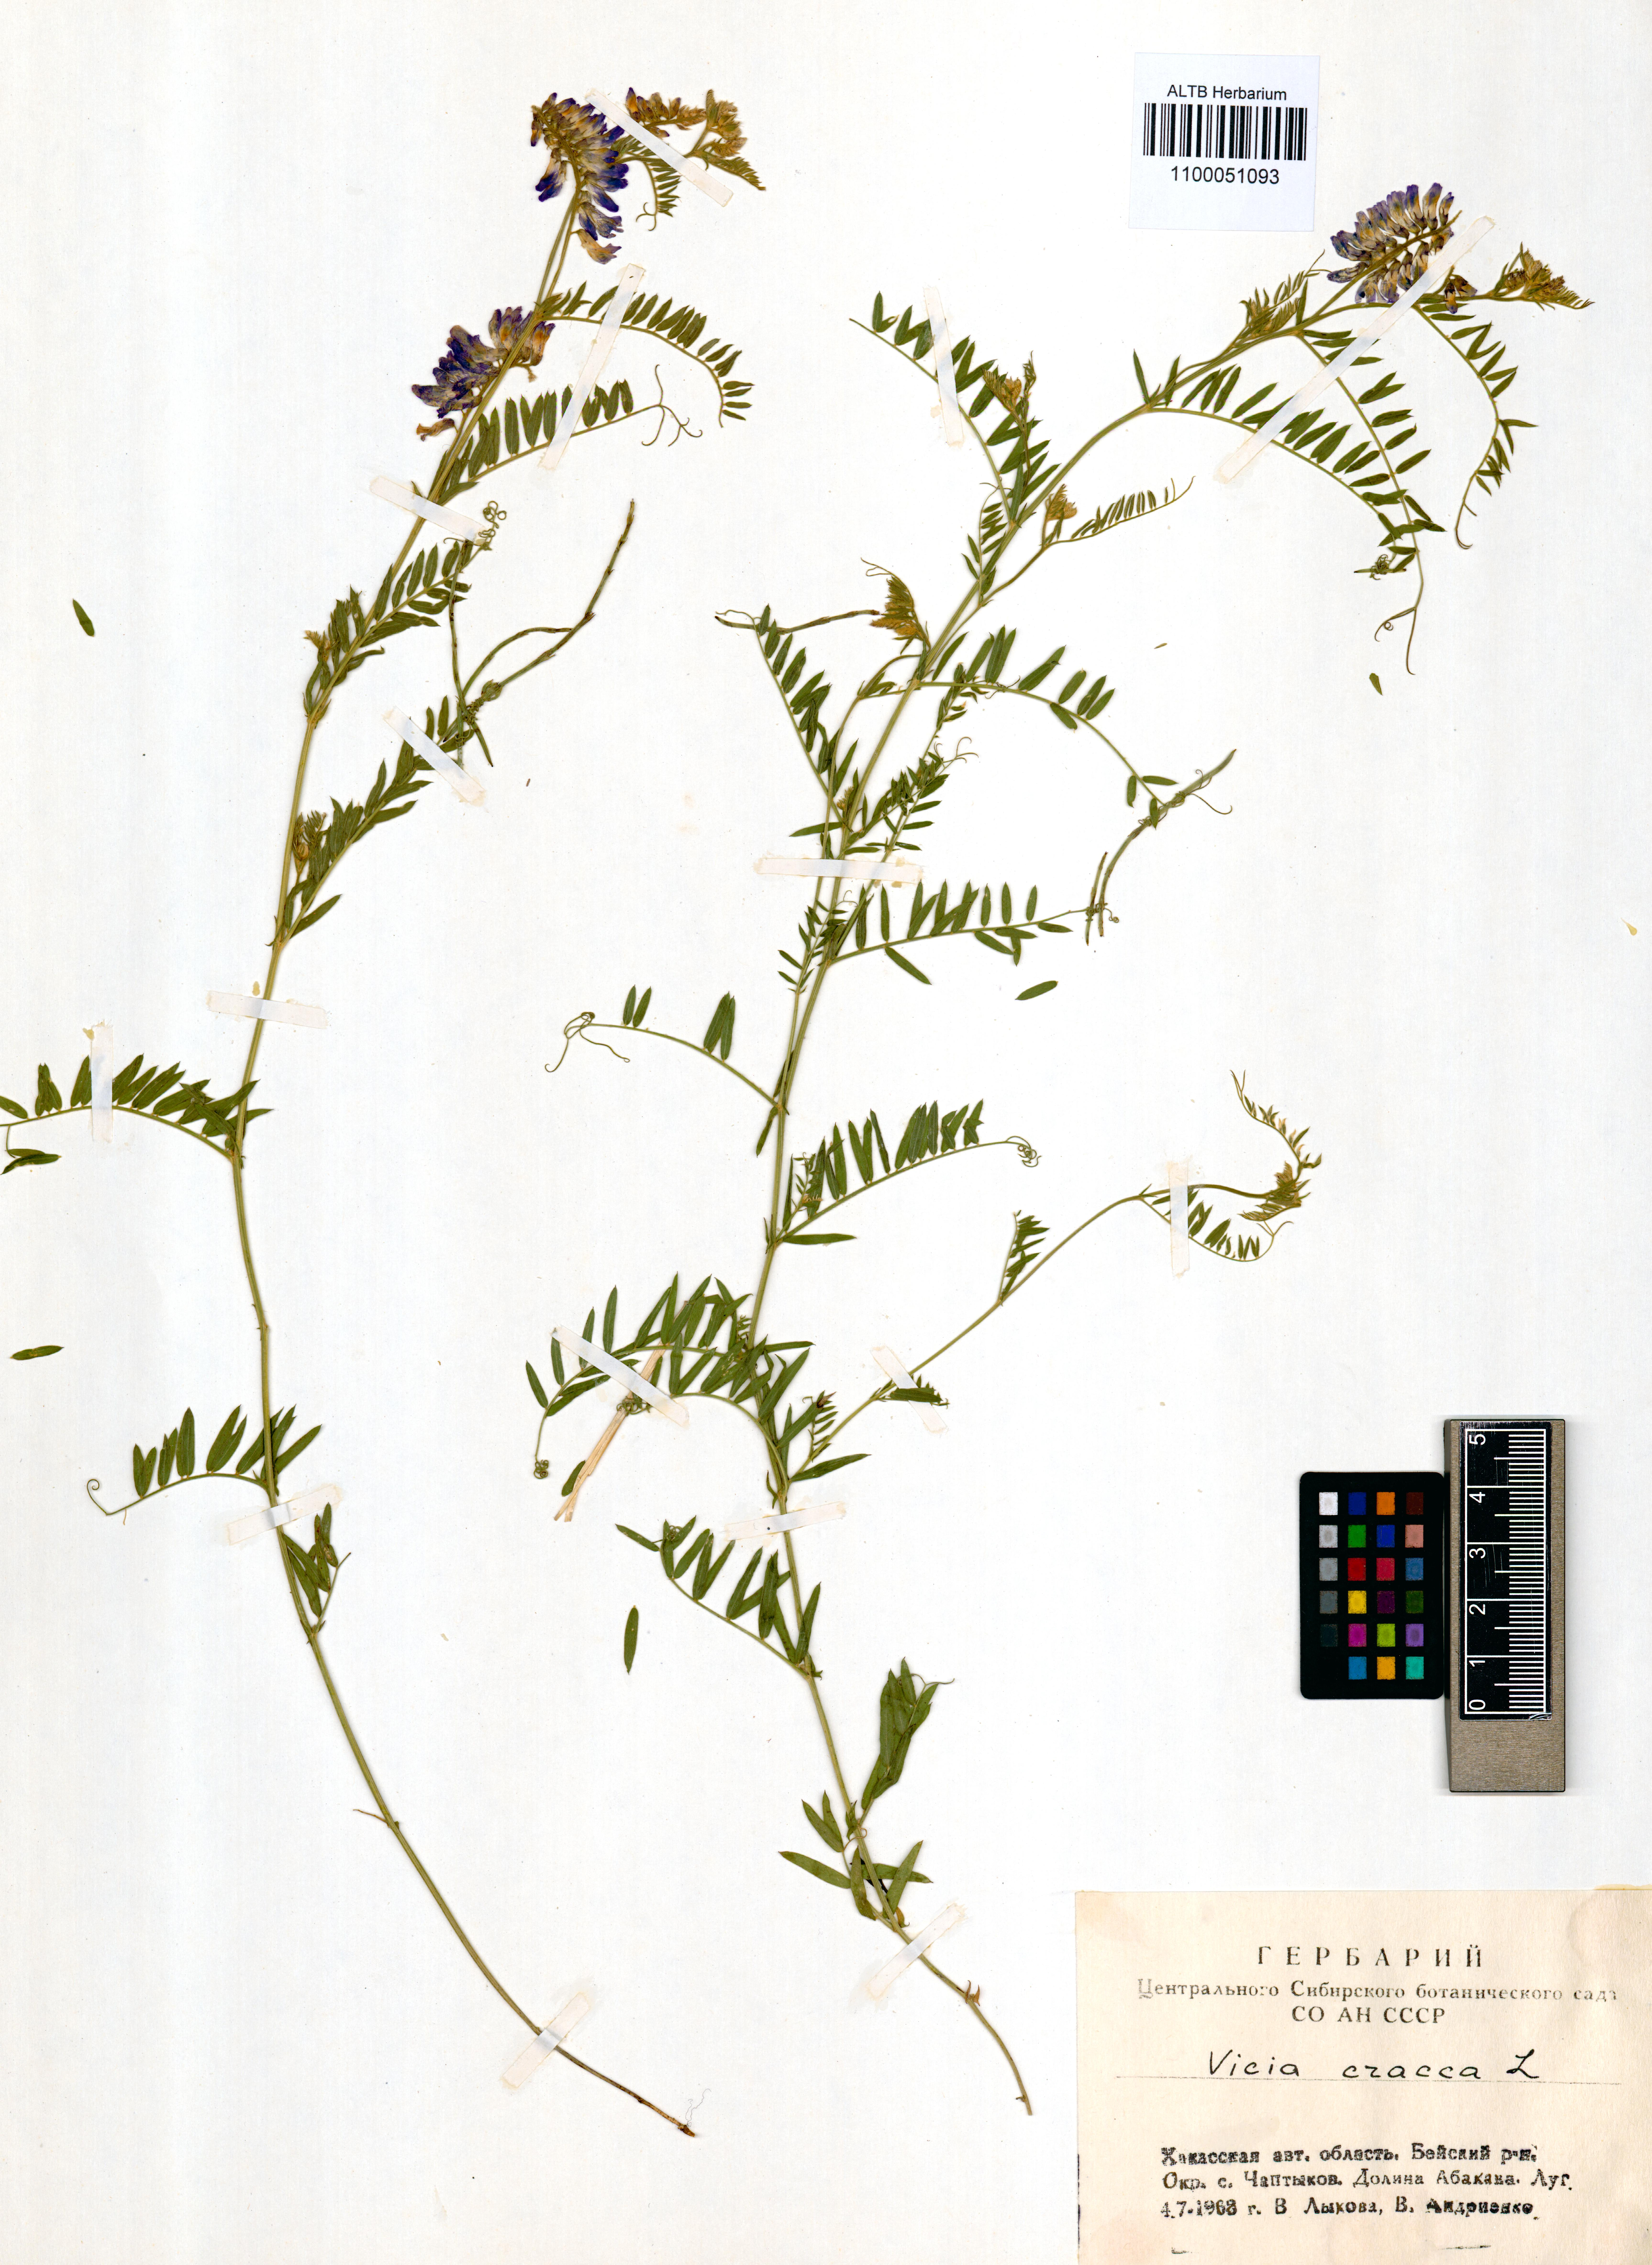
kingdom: Plantae
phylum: Tracheophyta
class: Magnoliopsida
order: Fabales
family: Fabaceae
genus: Vicia
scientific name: Vicia cracca
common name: Bird vetch
